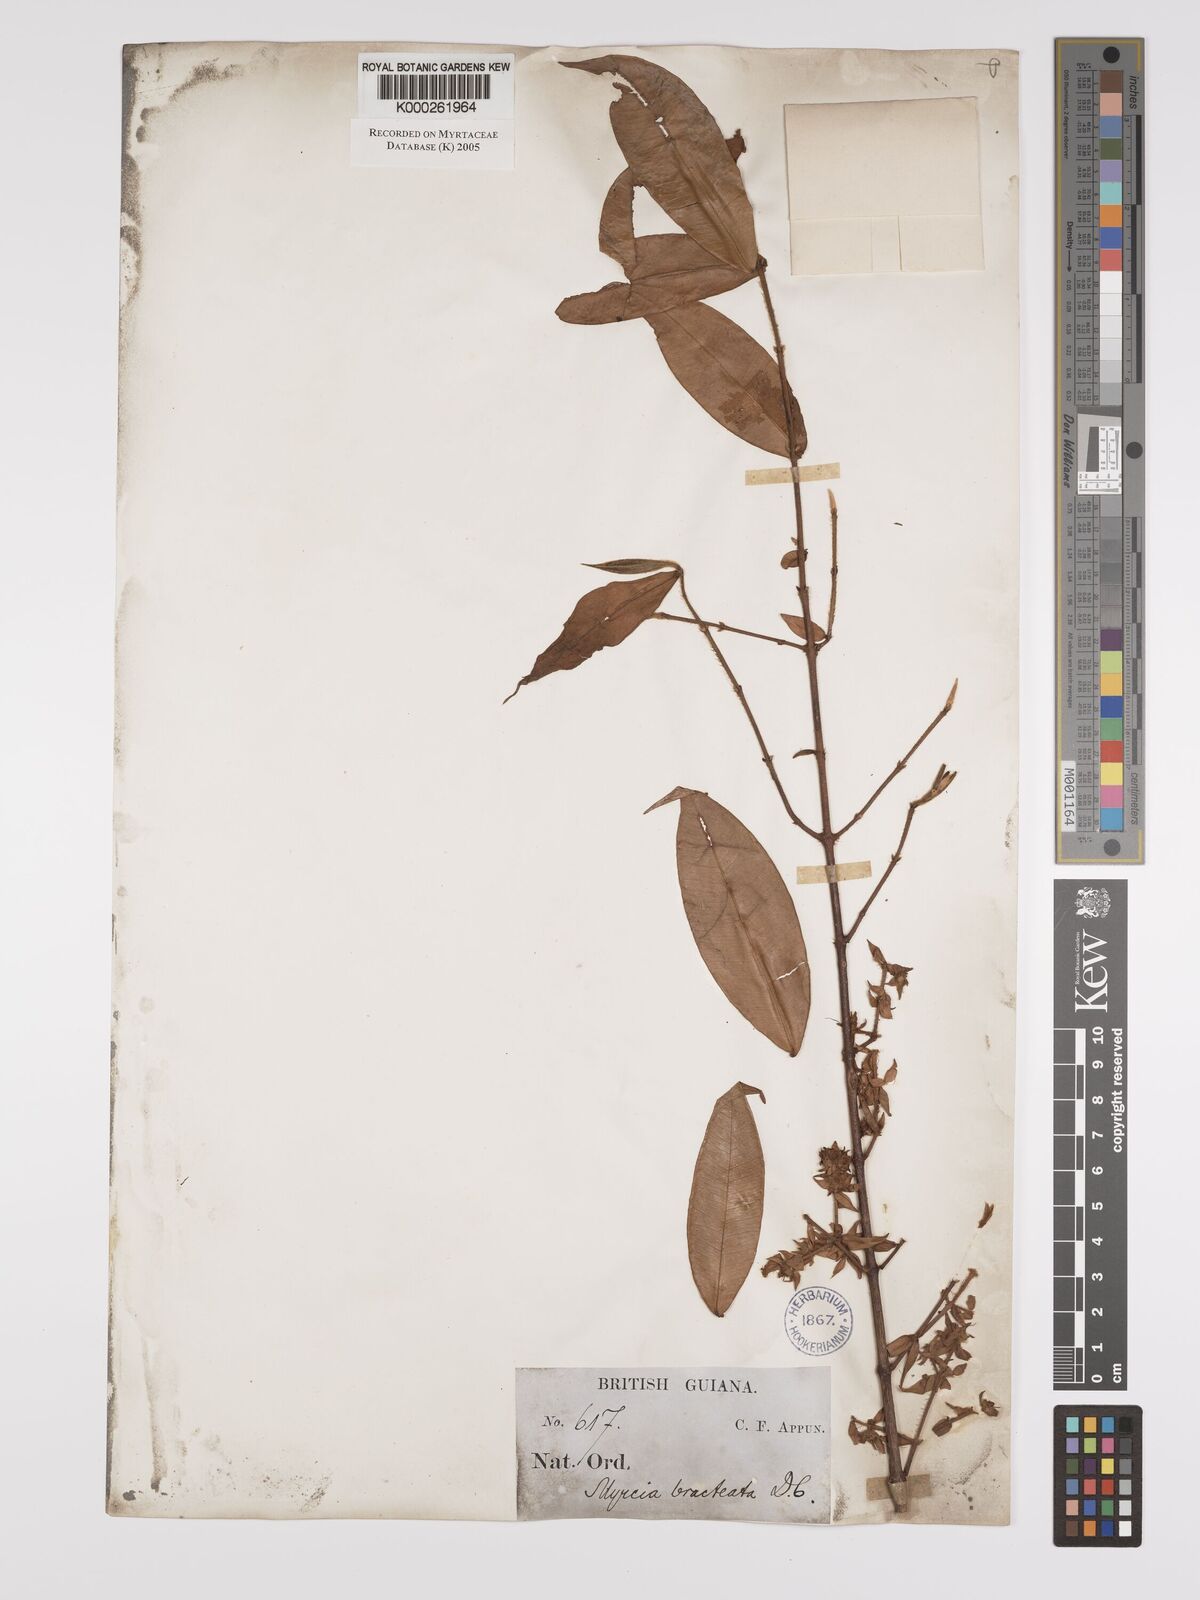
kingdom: Plantae
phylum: Tracheophyta
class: Magnoliopsida
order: Myrtales
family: Myrtaceae
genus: Myrcia
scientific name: Myrcia bracteata
